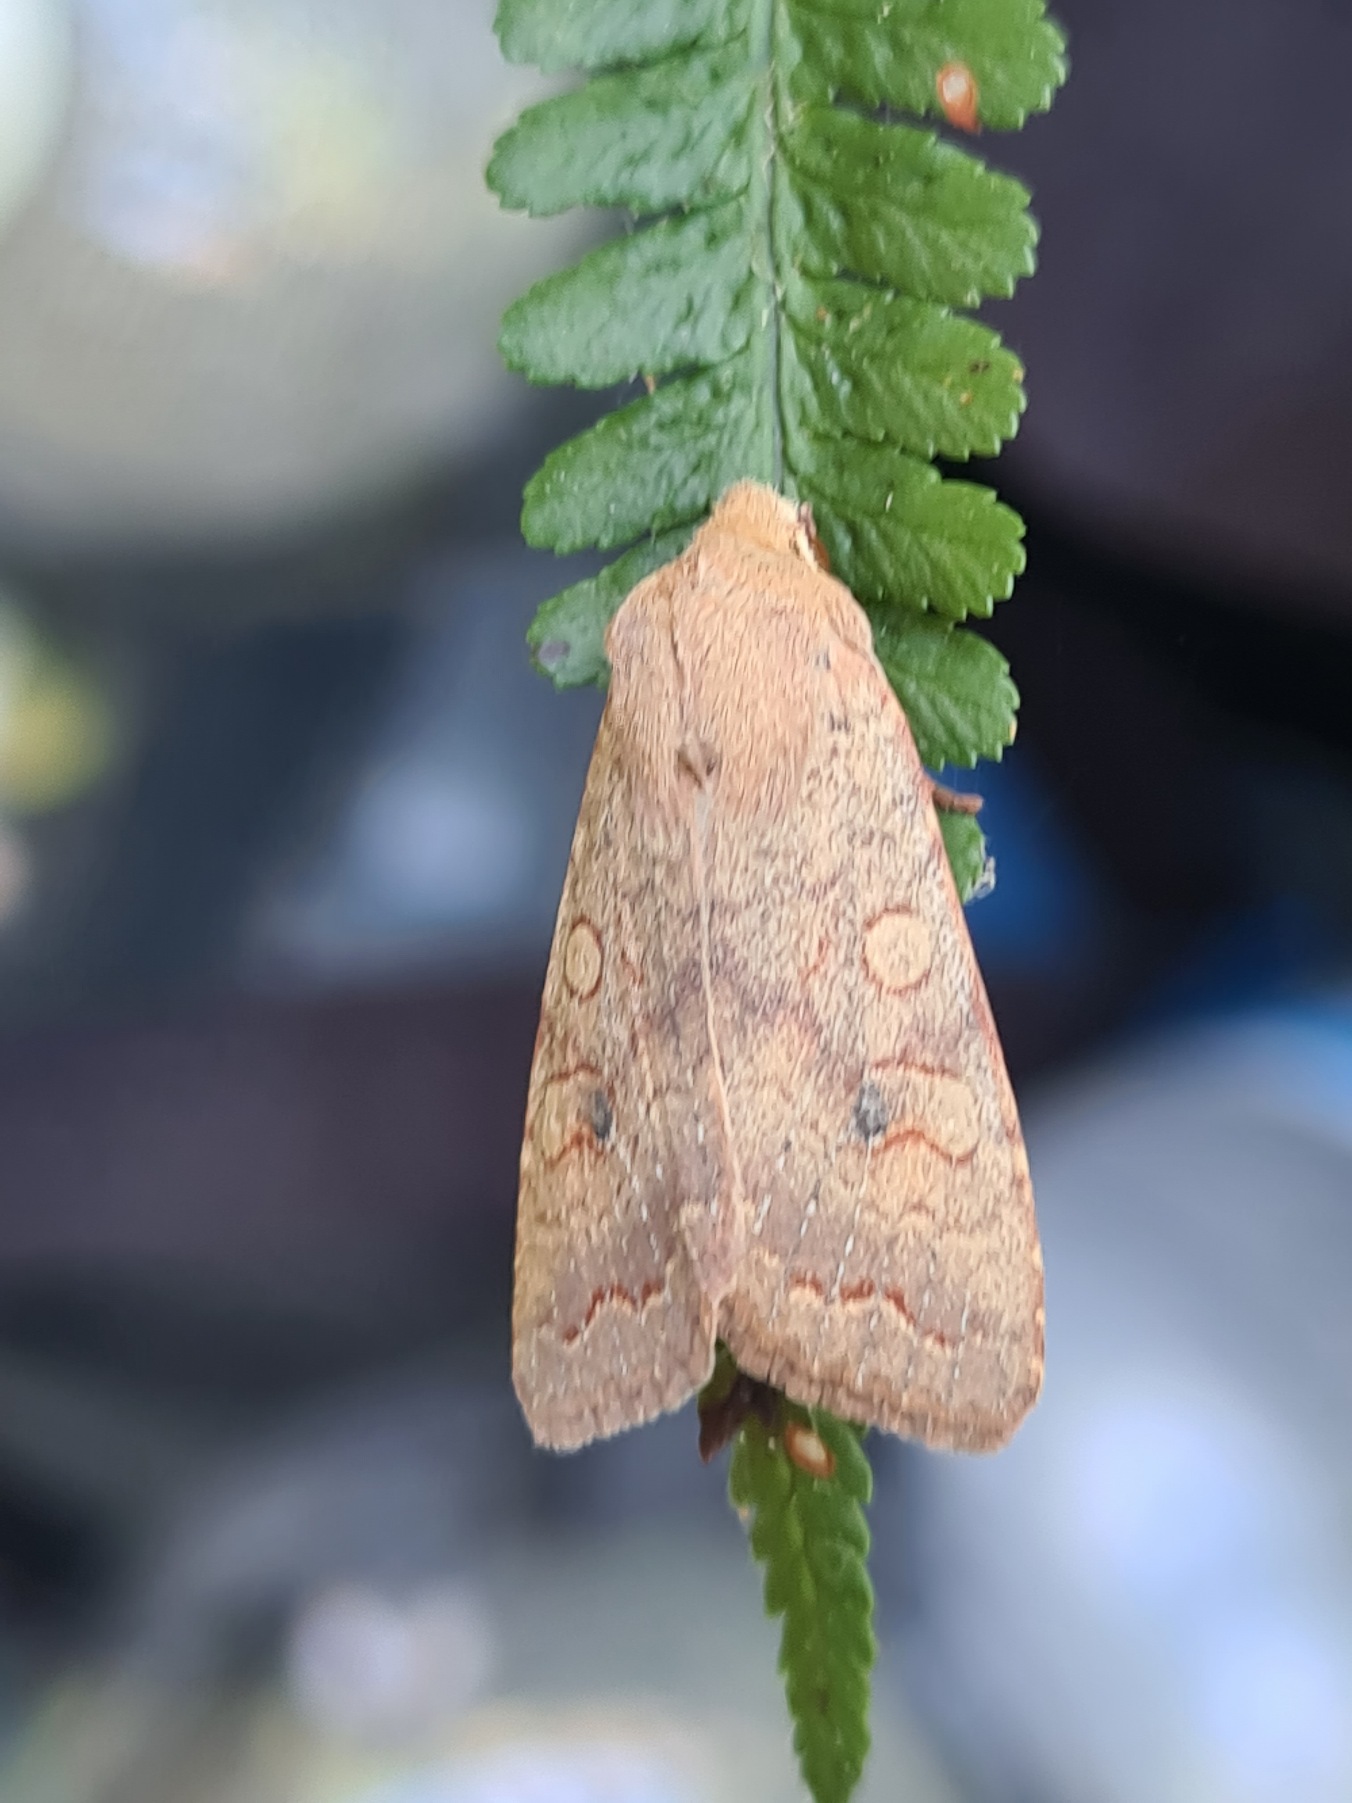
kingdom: Animalia
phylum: Arthropoda
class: Insecta
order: Lepidoptera
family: Noctuidae
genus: Sunira
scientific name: Sunira circellaris
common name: Cirkel-jordfarveugle
